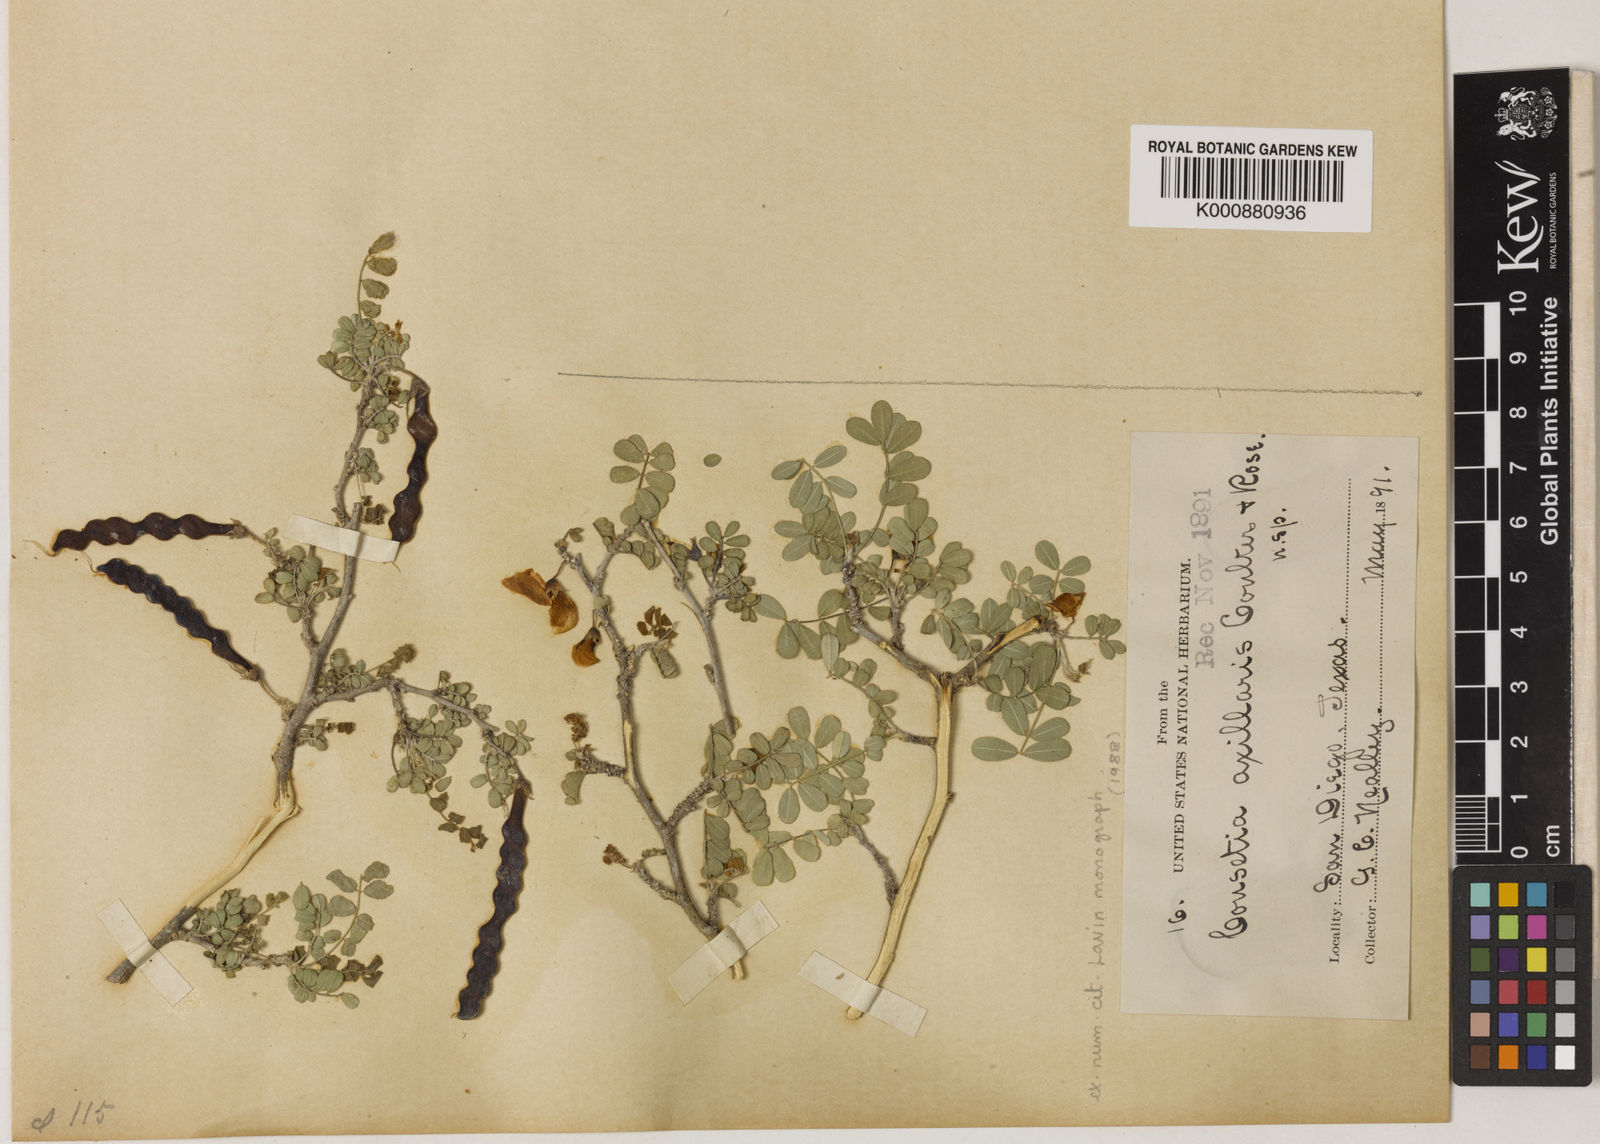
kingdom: Plantae
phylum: Tracheophyta
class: Magnoliopsida
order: Fabales
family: Fabaceae
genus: Coursetia
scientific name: Coursetia axillaris
